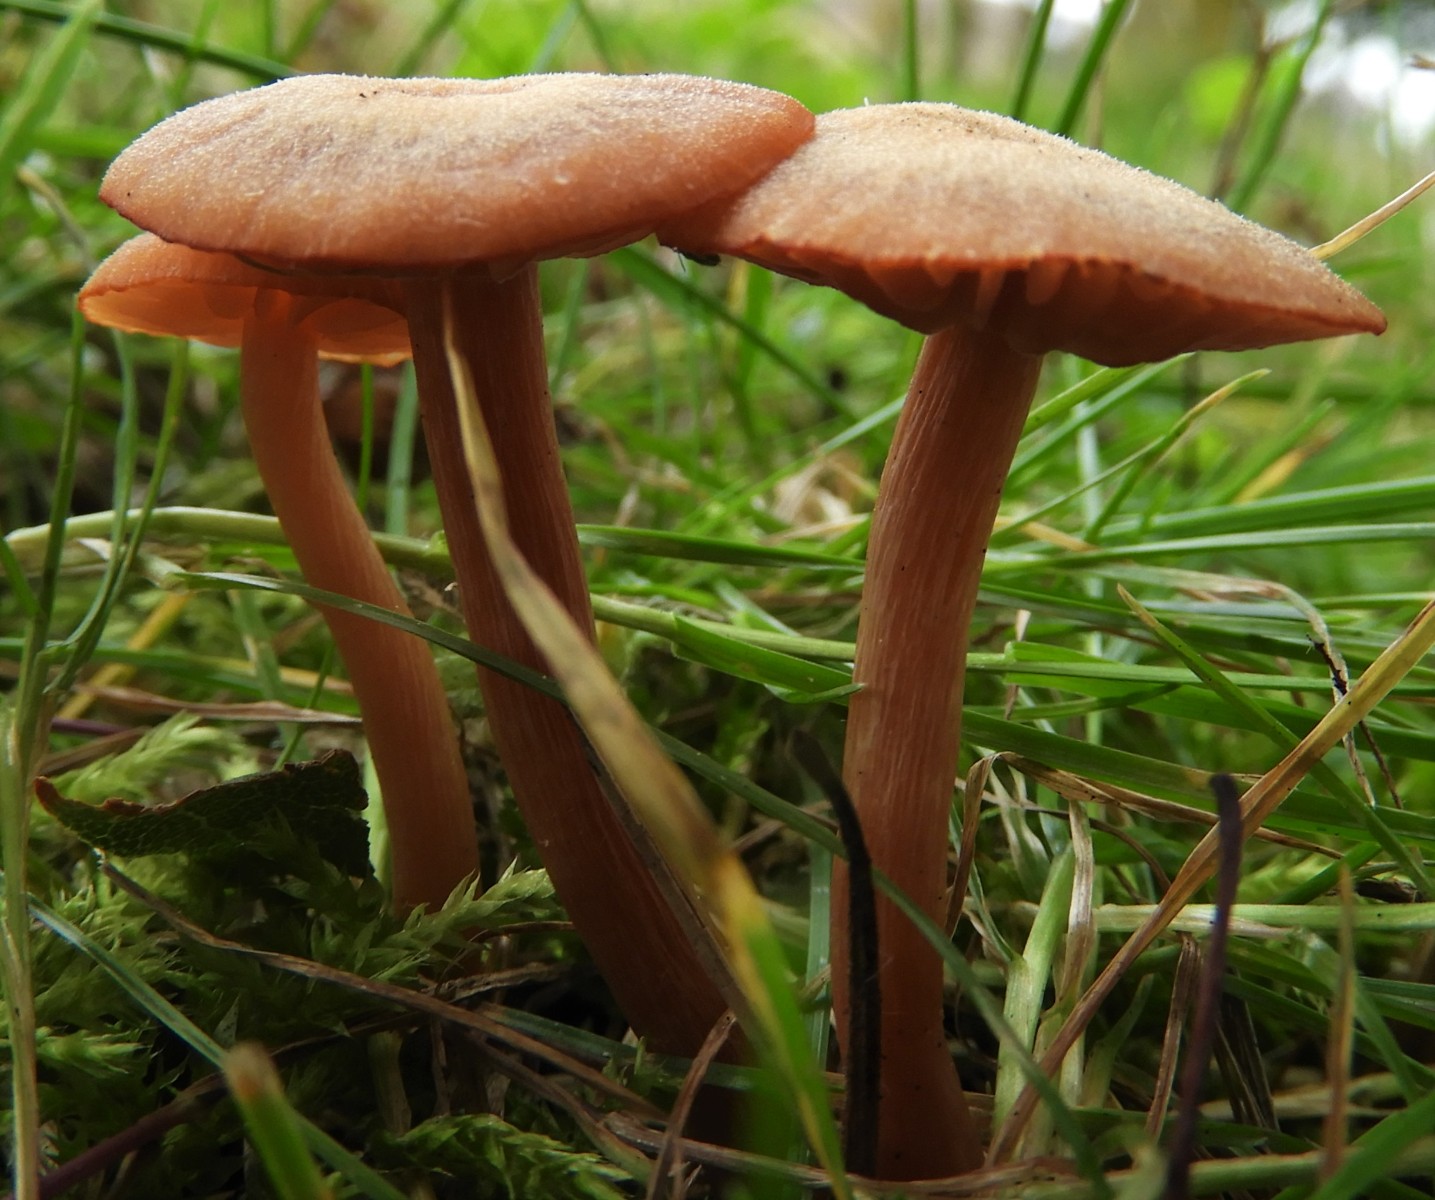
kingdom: Fungi
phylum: Basidiomycota
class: Agaricomycetes
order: Agaricales
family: Hydnangiaceae
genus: Laccaria
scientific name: Laccaria laccata
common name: rød ametysthat
